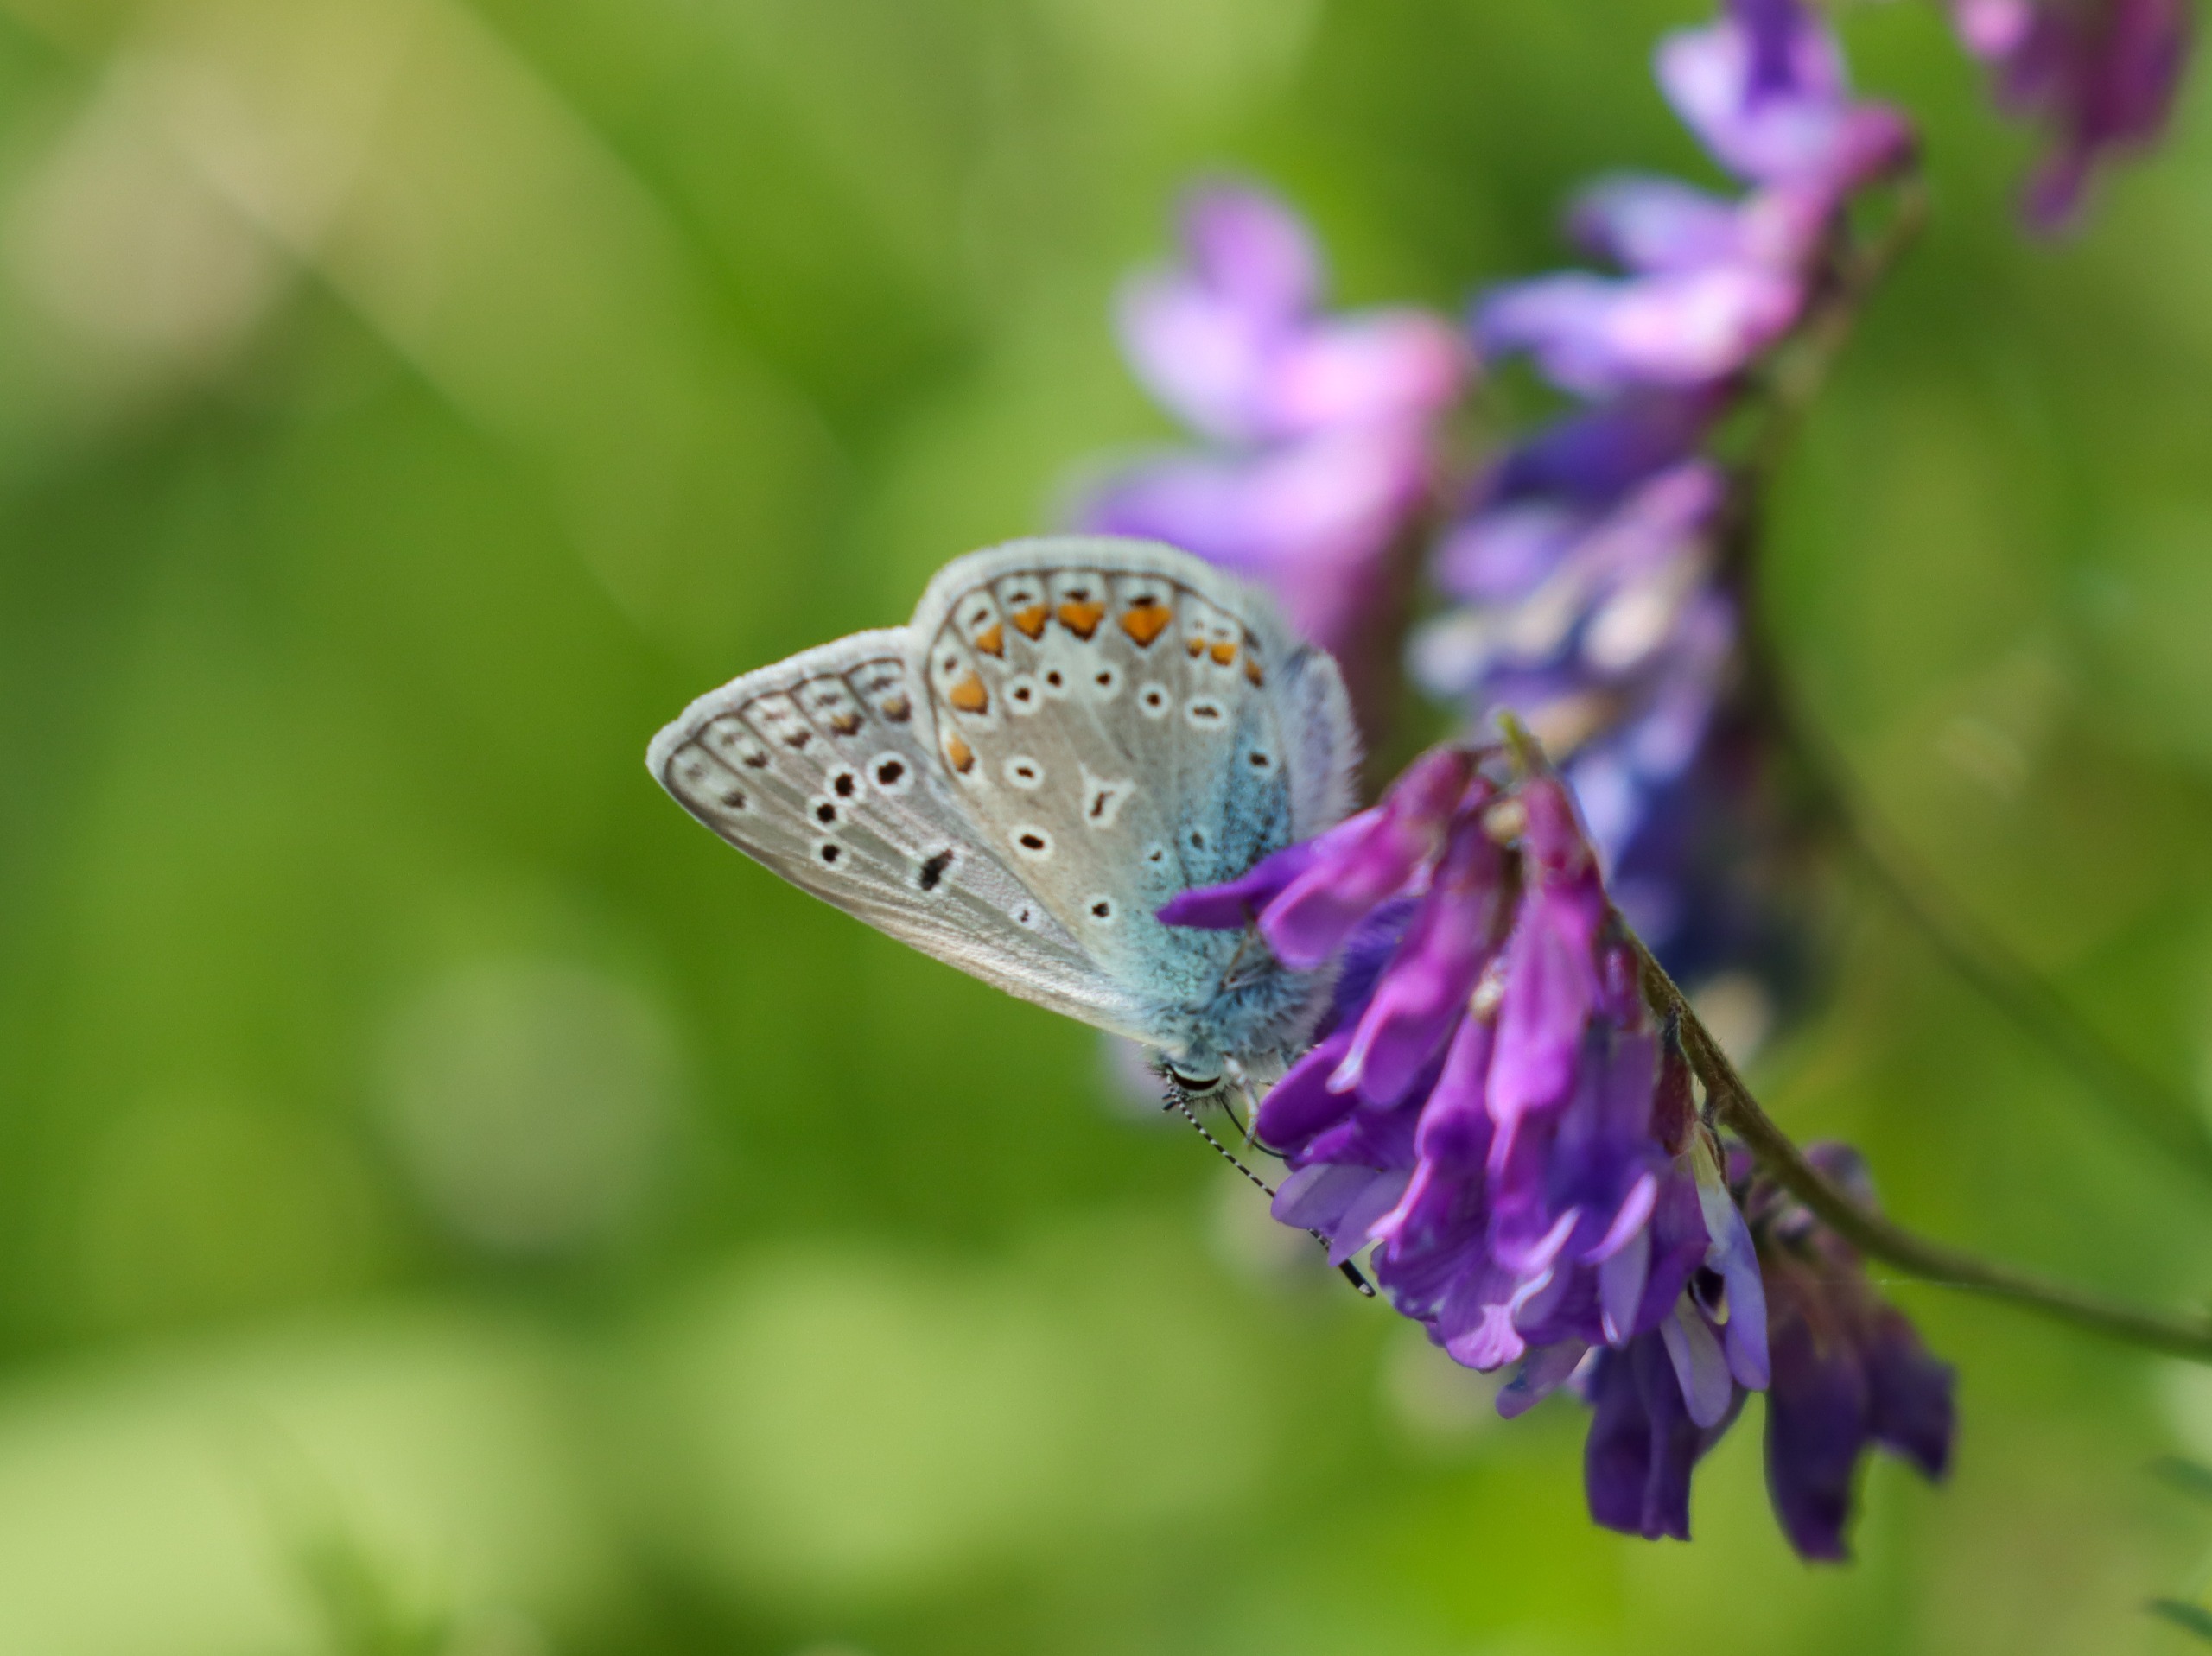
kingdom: Animalia
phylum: Arthropoda
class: Insecta
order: Lepidoptera
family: Lycaenidae
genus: Polyommatus
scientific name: Polyommatus icarus
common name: Almindelig blåfugl
